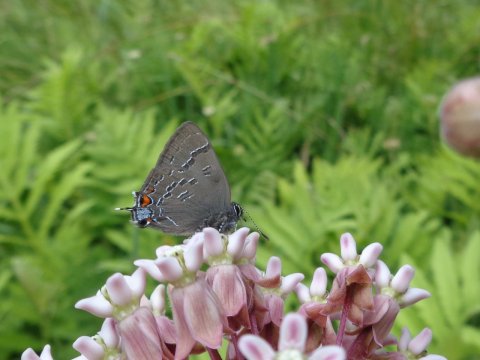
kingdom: Animalia
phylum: Arthropoda
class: Insecta
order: Lepidoptera
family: Lycaenidae
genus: Satyrium
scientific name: Satyrium calanus
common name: Banded Hairstreak
